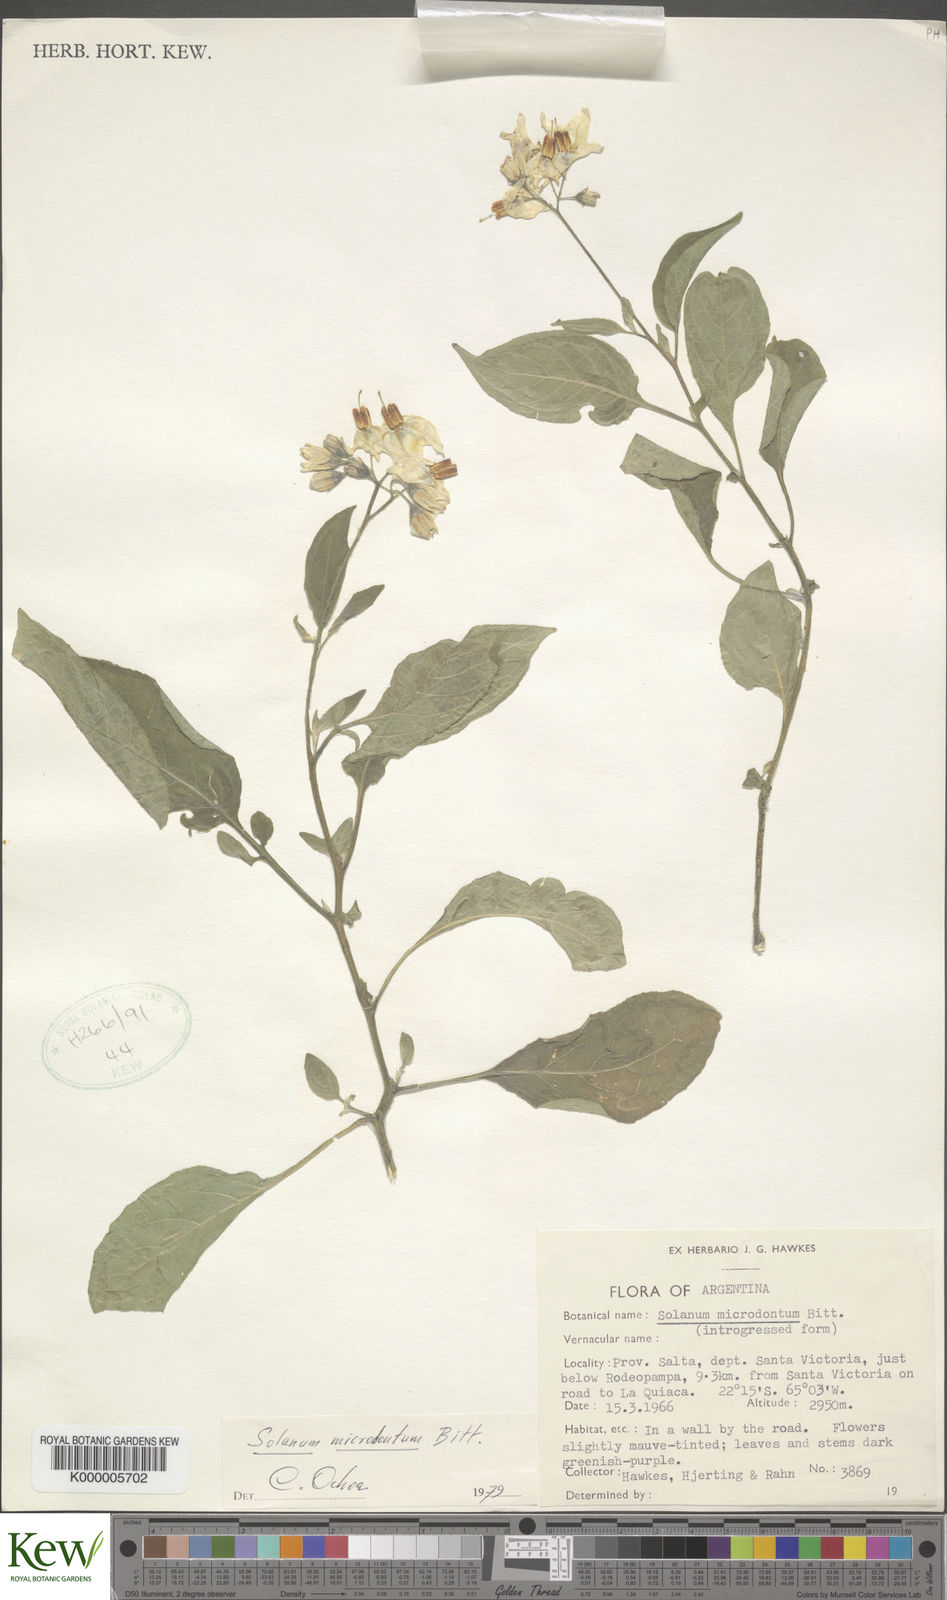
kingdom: Plantae
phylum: Tracheophyta
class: Magnoliopsida
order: Solanales
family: Solanaceae
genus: Solanum
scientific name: Solanum microdontum
